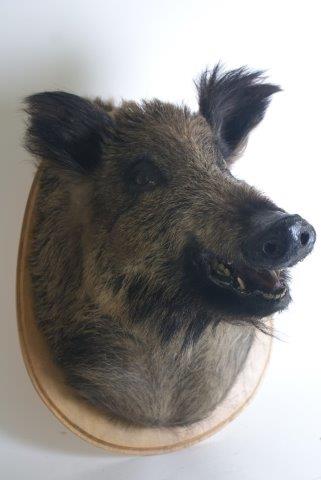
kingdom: Animalia
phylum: Chordata
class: Mammalia
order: Artiodactyla
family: Suidae
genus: Sus
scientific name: Sus scrofa
